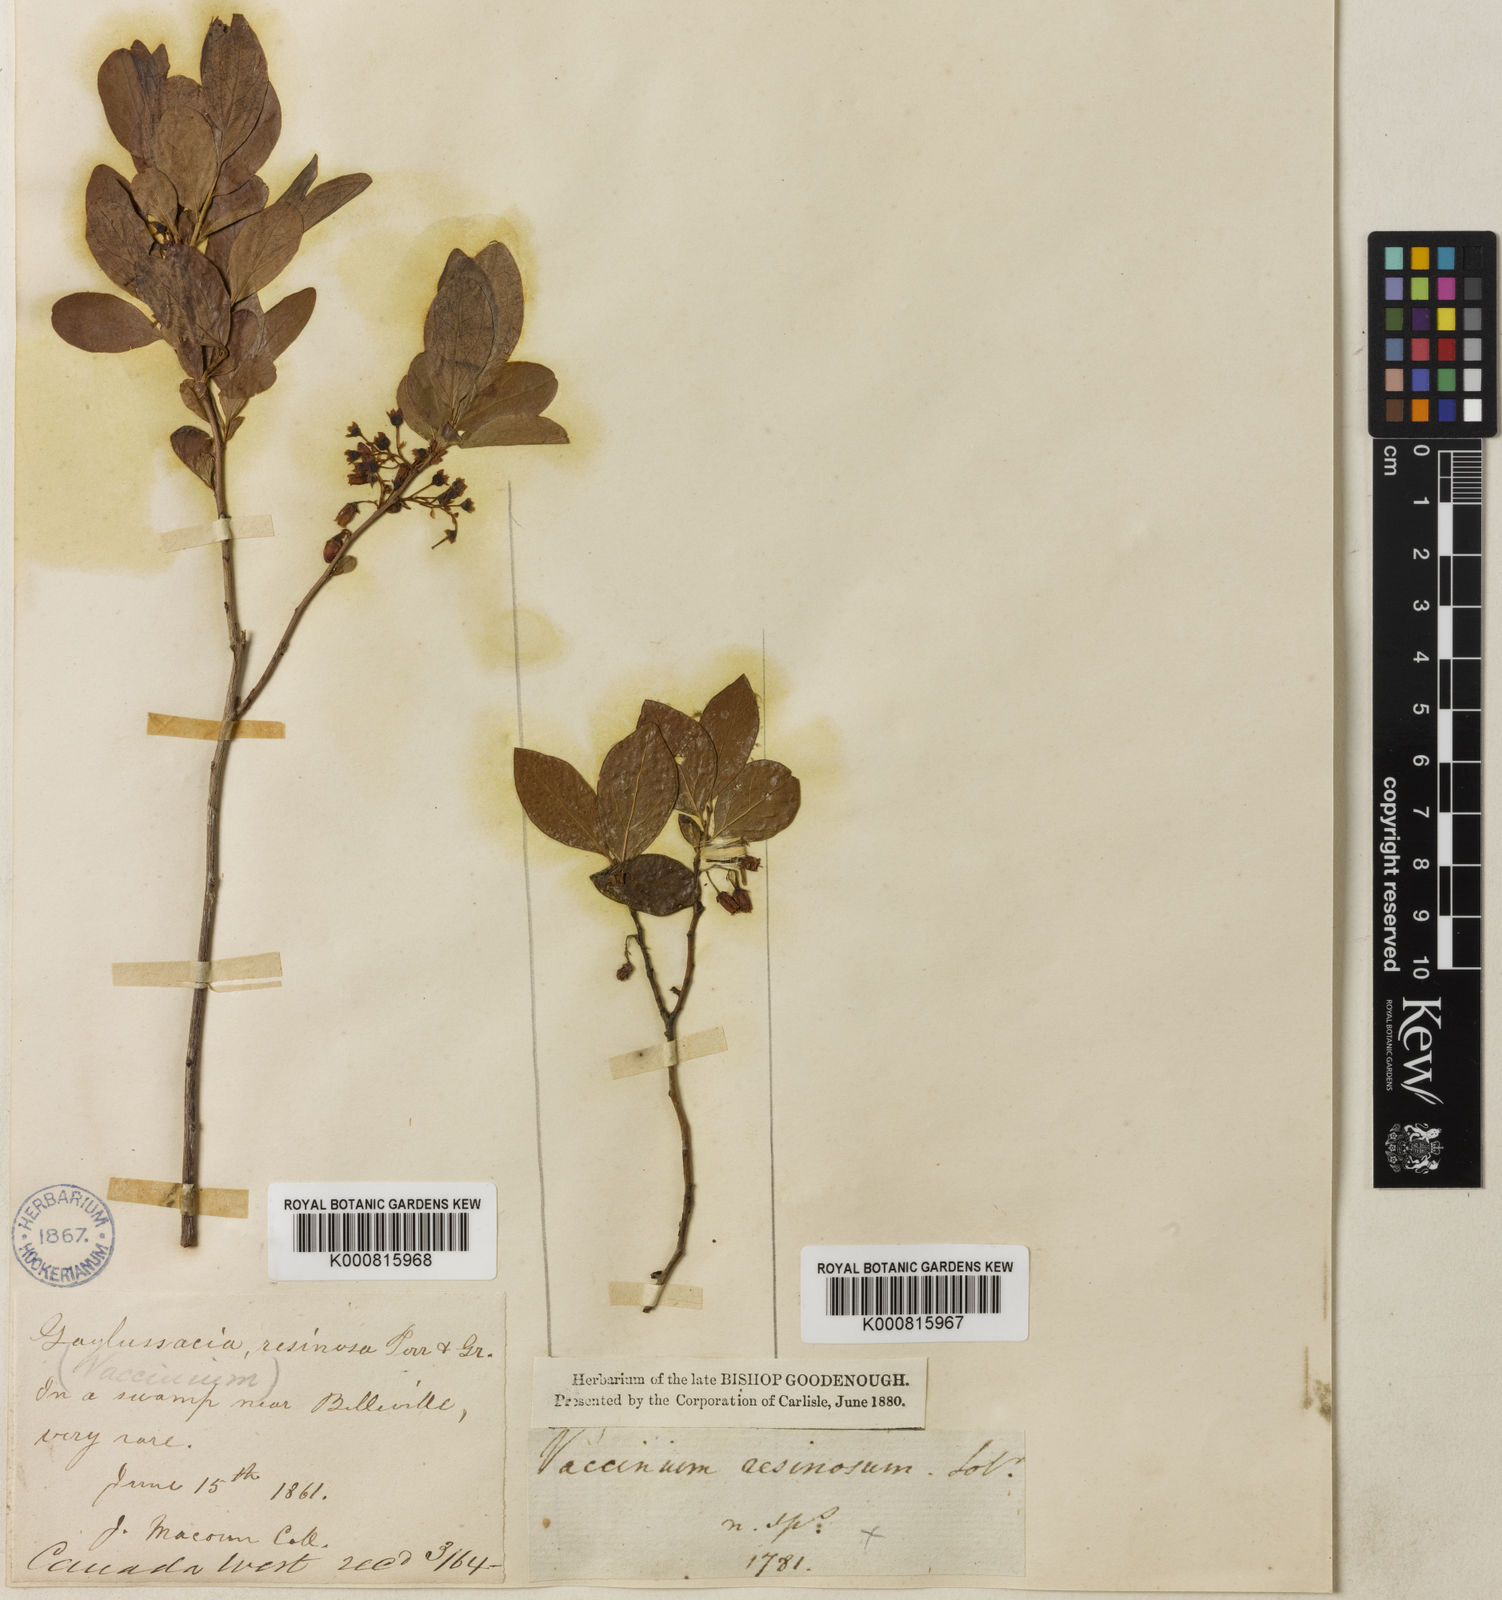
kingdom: Plantae
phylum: Tracheophyta
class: Magnoliopsida
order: Ericales
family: Ericaceae
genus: Gaylussacia
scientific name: Gaylussacia baccata
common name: Black huckleberry
